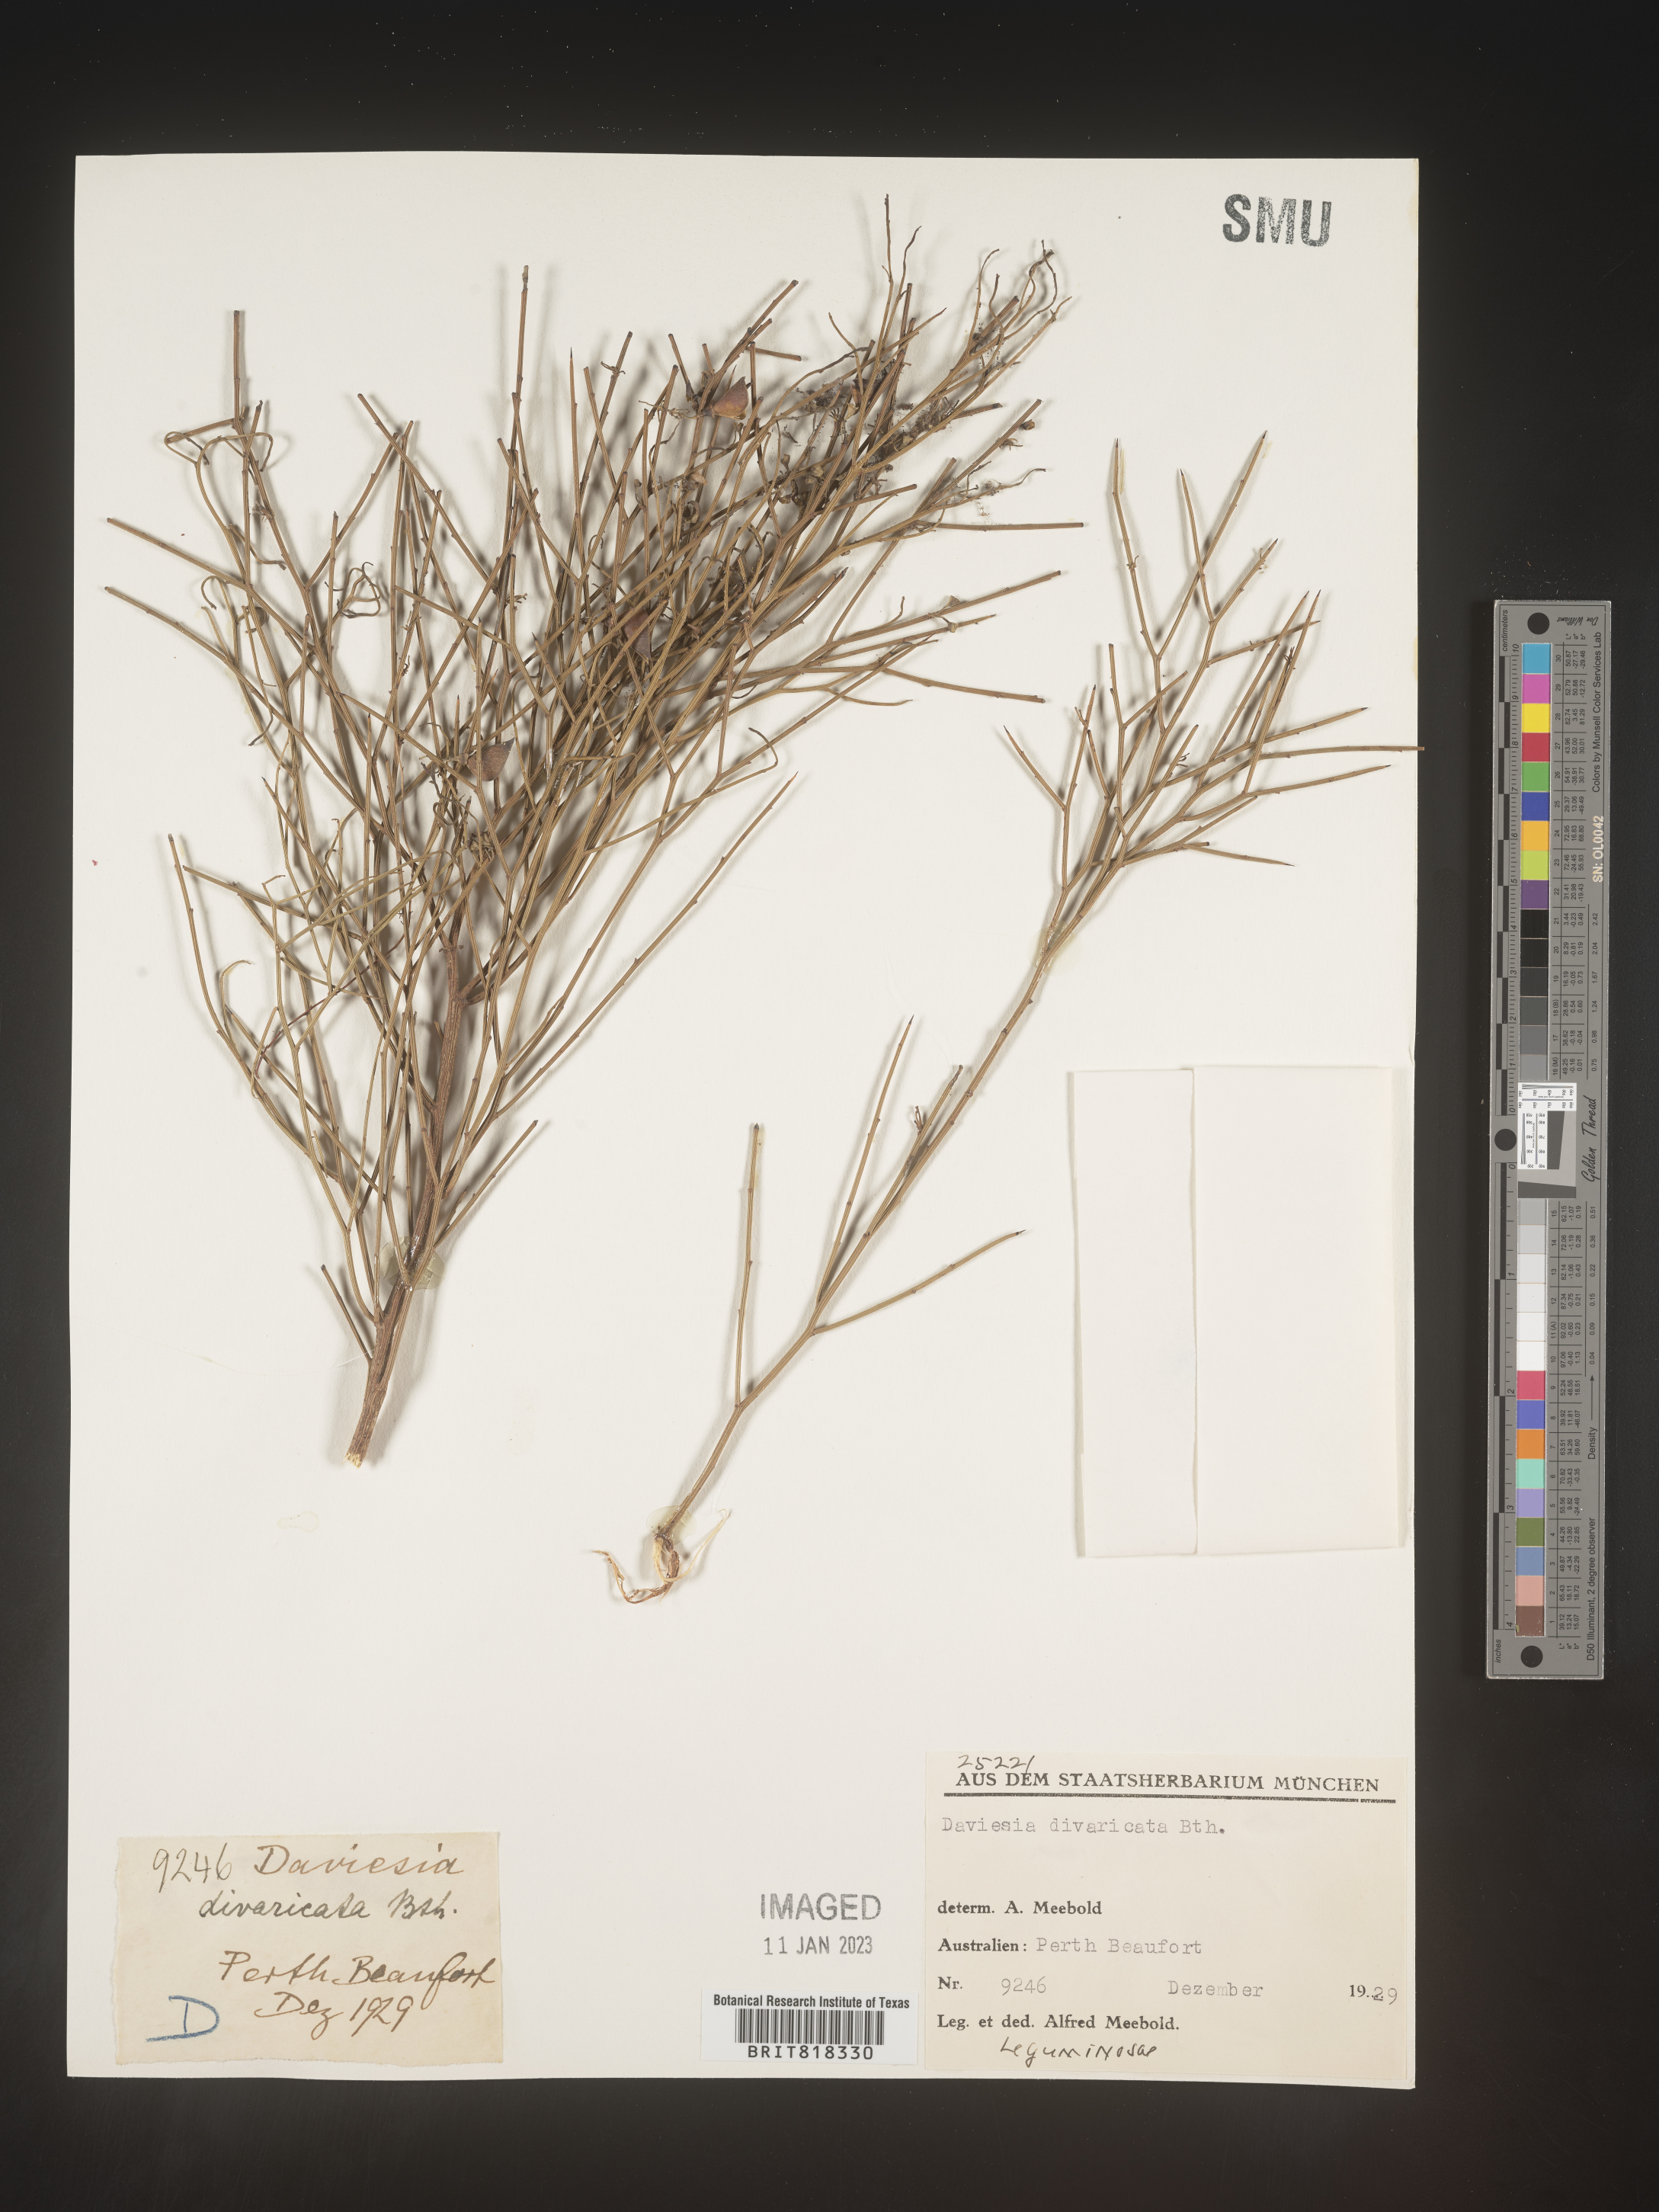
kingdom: Plantae
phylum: Tracheophyta
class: Magnoliopsida
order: Fabales
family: Fabaceae
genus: Daviesia
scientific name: Daviesia
